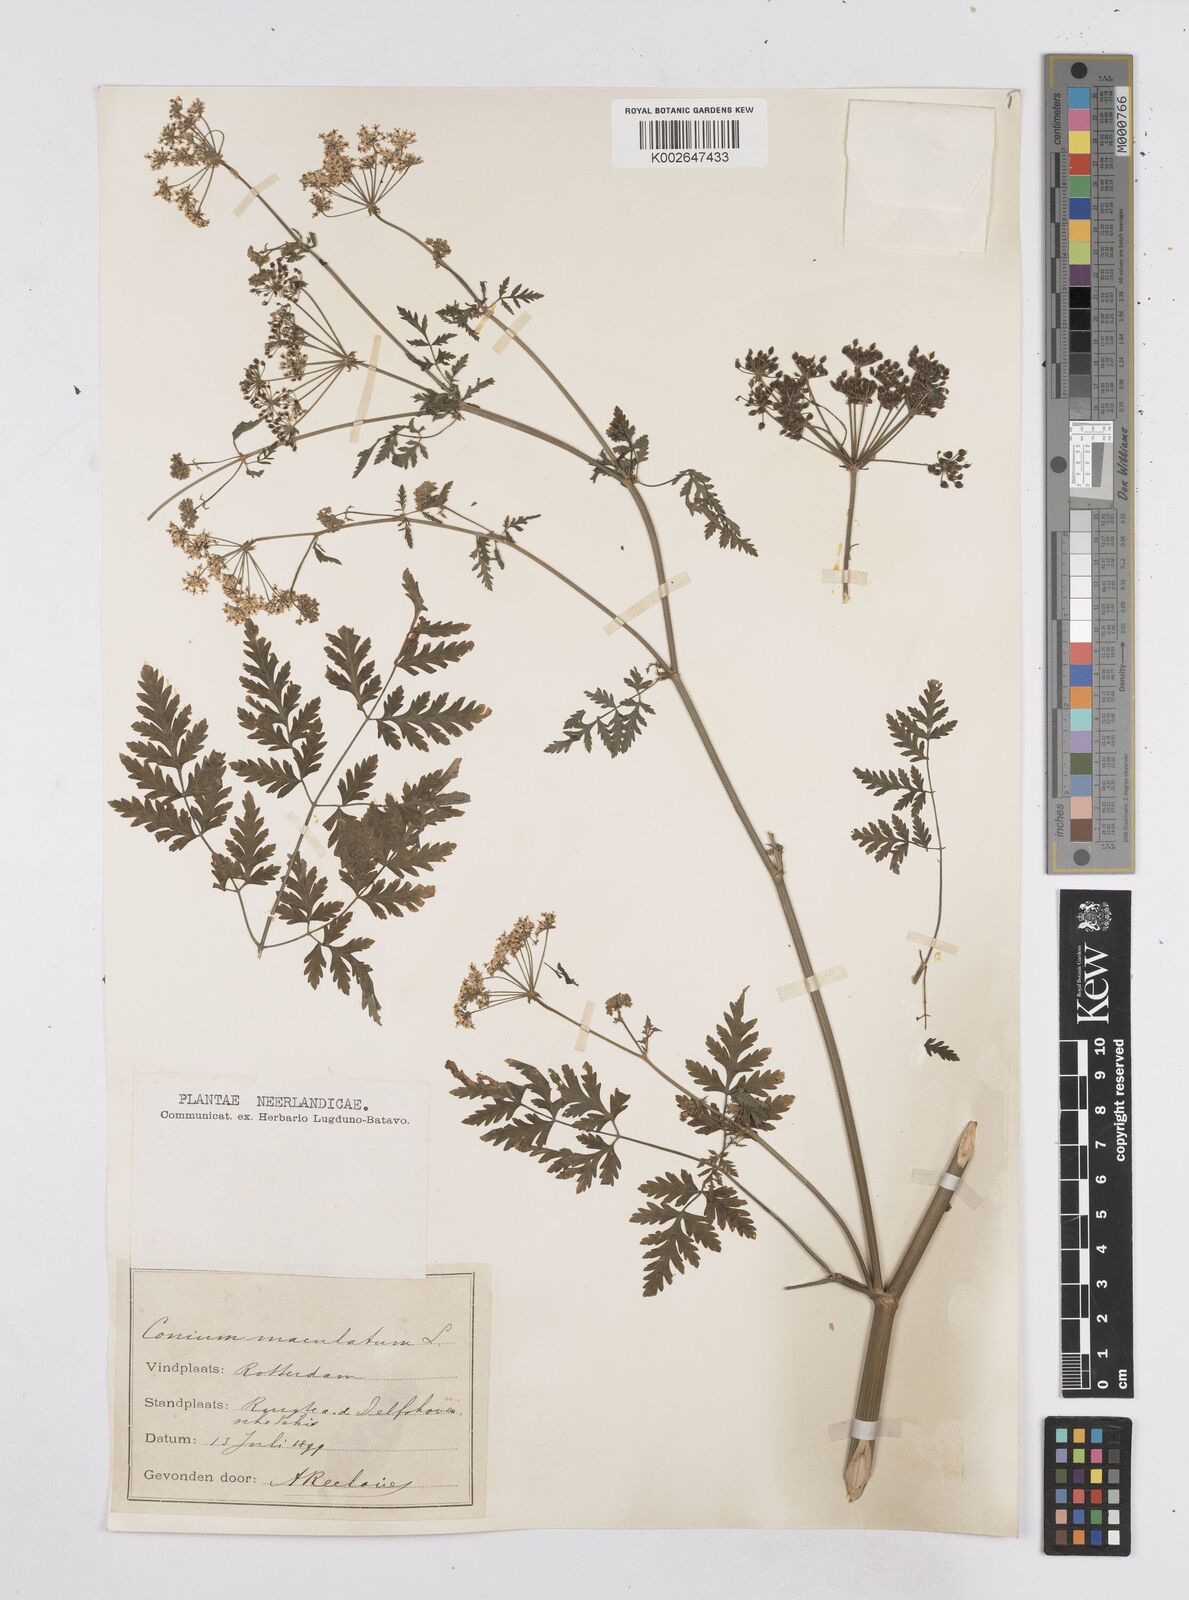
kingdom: Plantae
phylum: Tracheophyta
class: Magnoliopsida
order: Apiales
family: Apiaceae
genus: Conium
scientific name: Conium maculatum
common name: Hemlock
